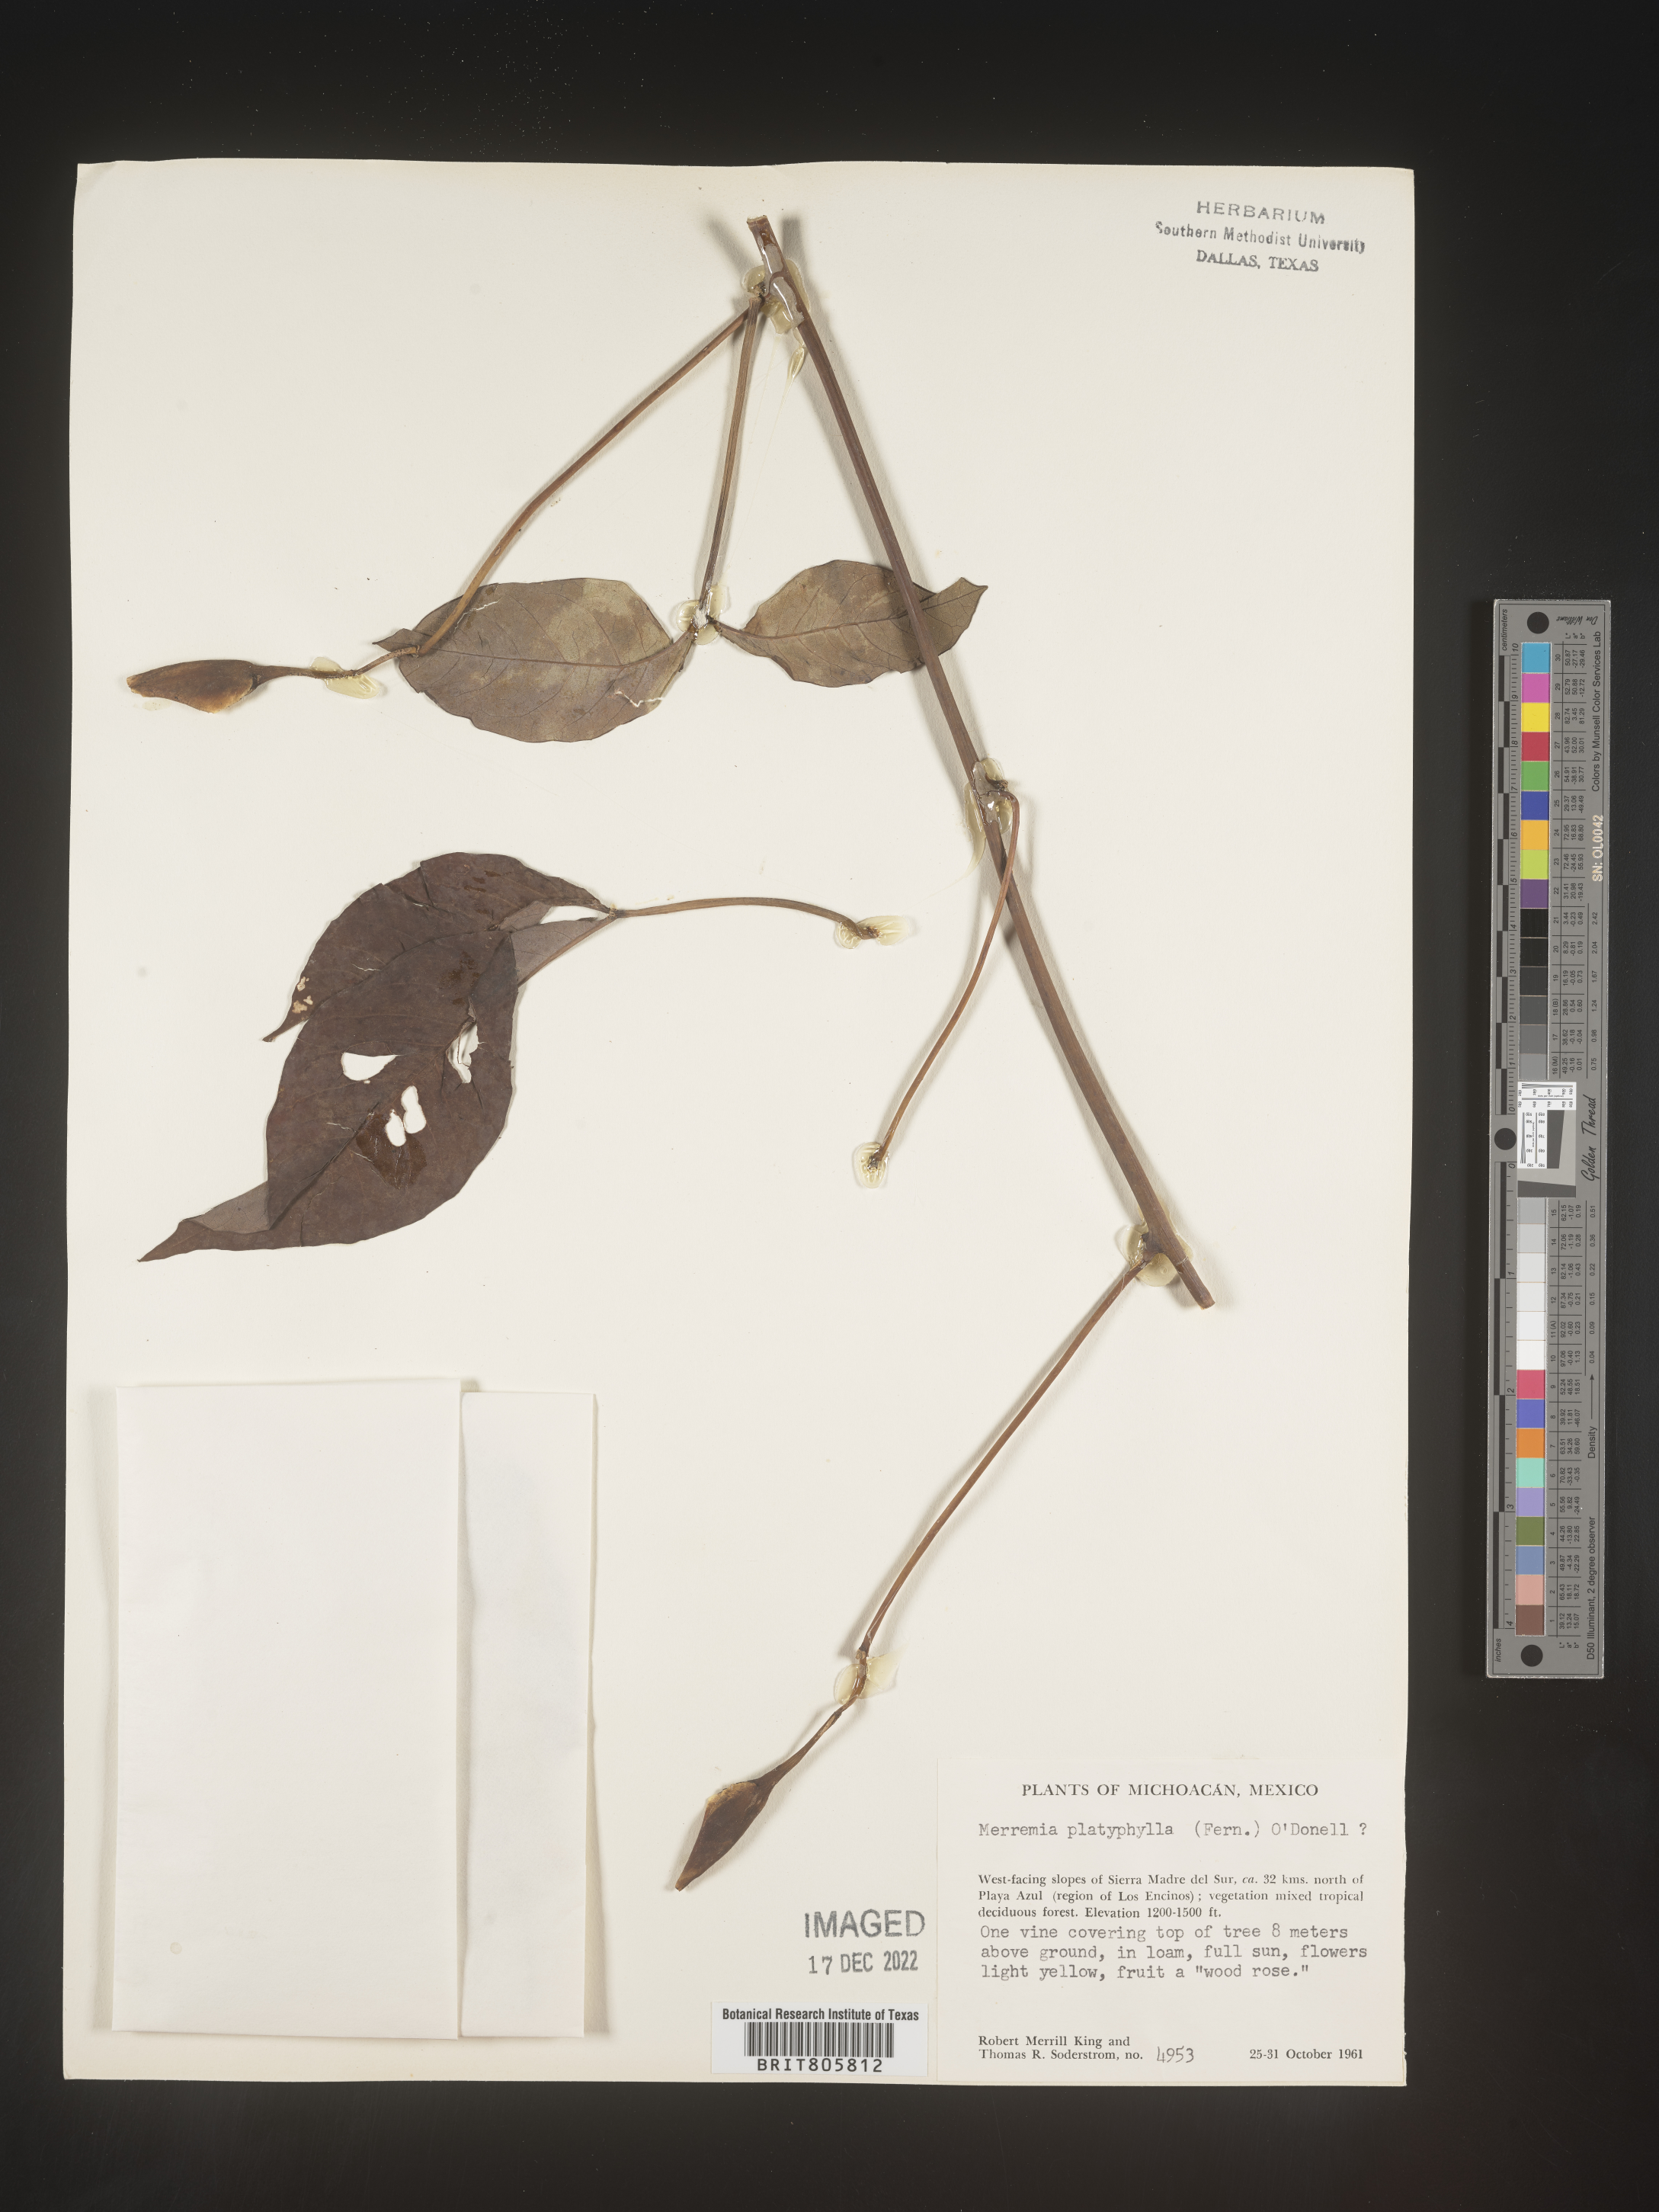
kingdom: Plantae
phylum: Tracheophyta
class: Magnoliopsida
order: Solanales
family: Convolvulaceae
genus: Merremia
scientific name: Merremia
